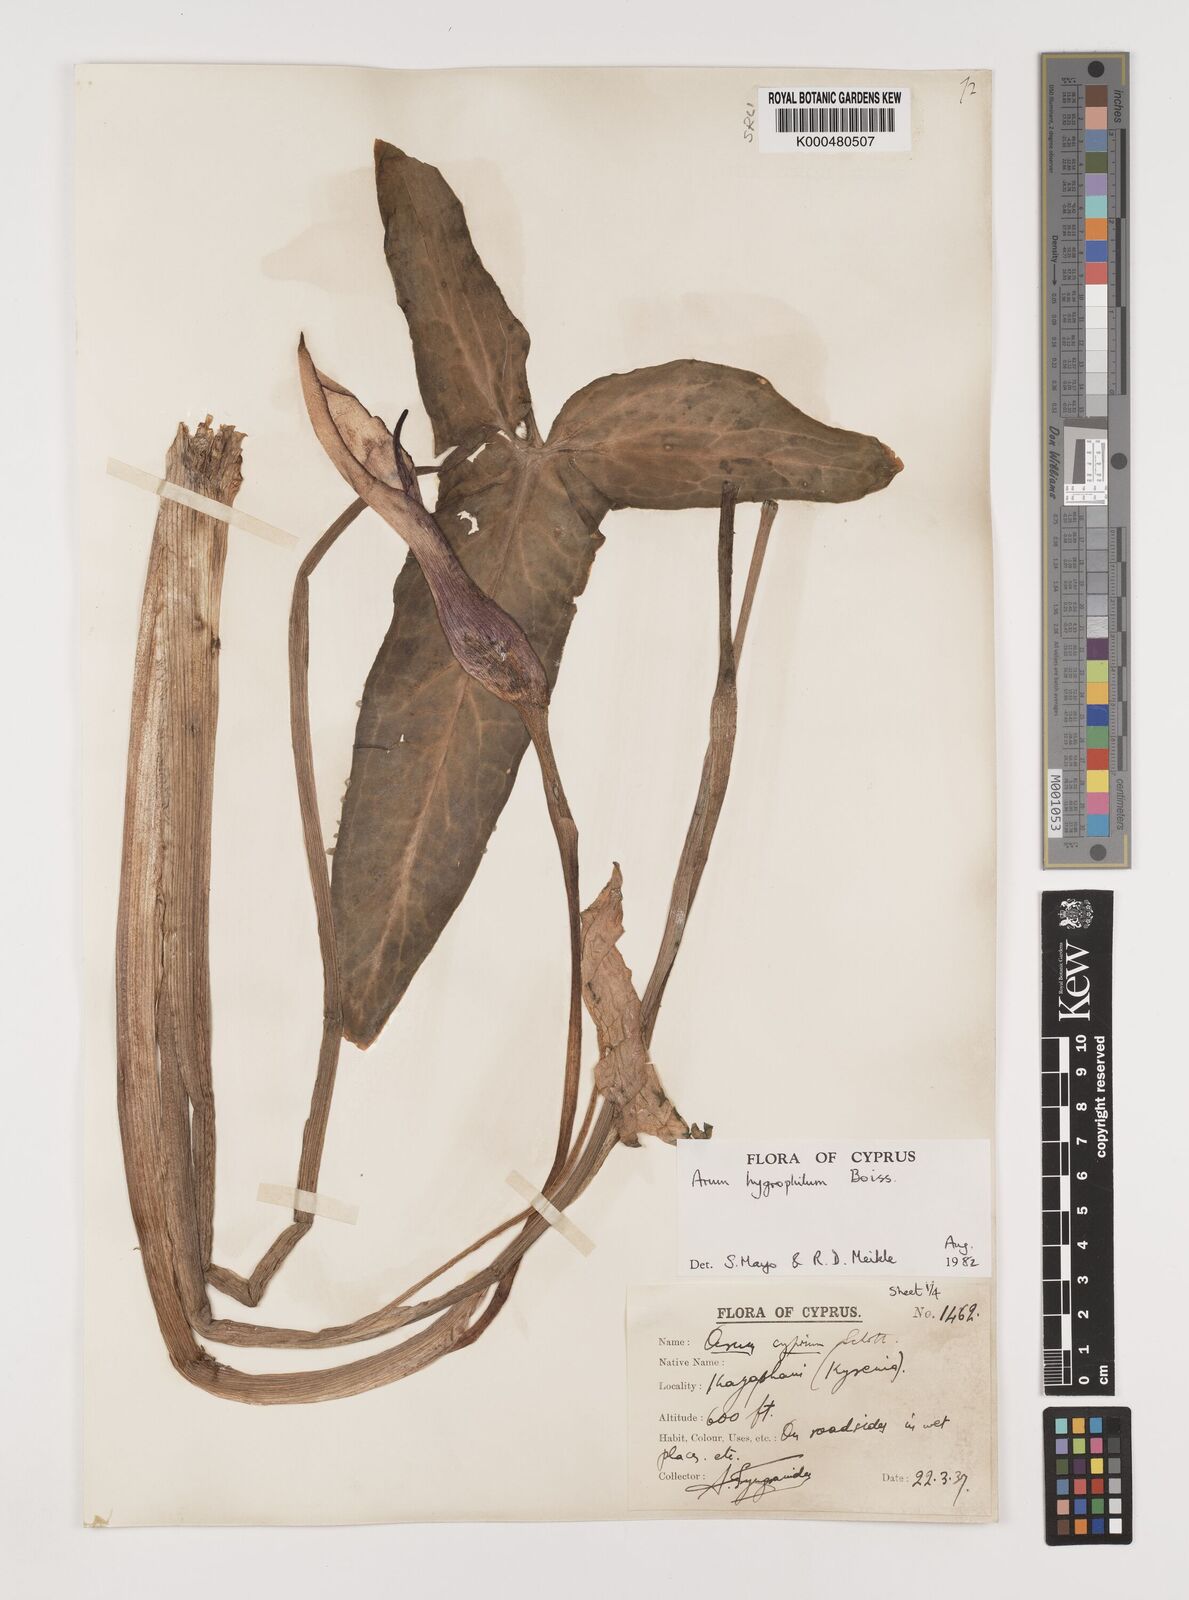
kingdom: Plantae
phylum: Tracheophyta
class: Liliopsida
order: Alismatales
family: Araceae
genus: Arum
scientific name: Arum hygrophilum
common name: Water arum
